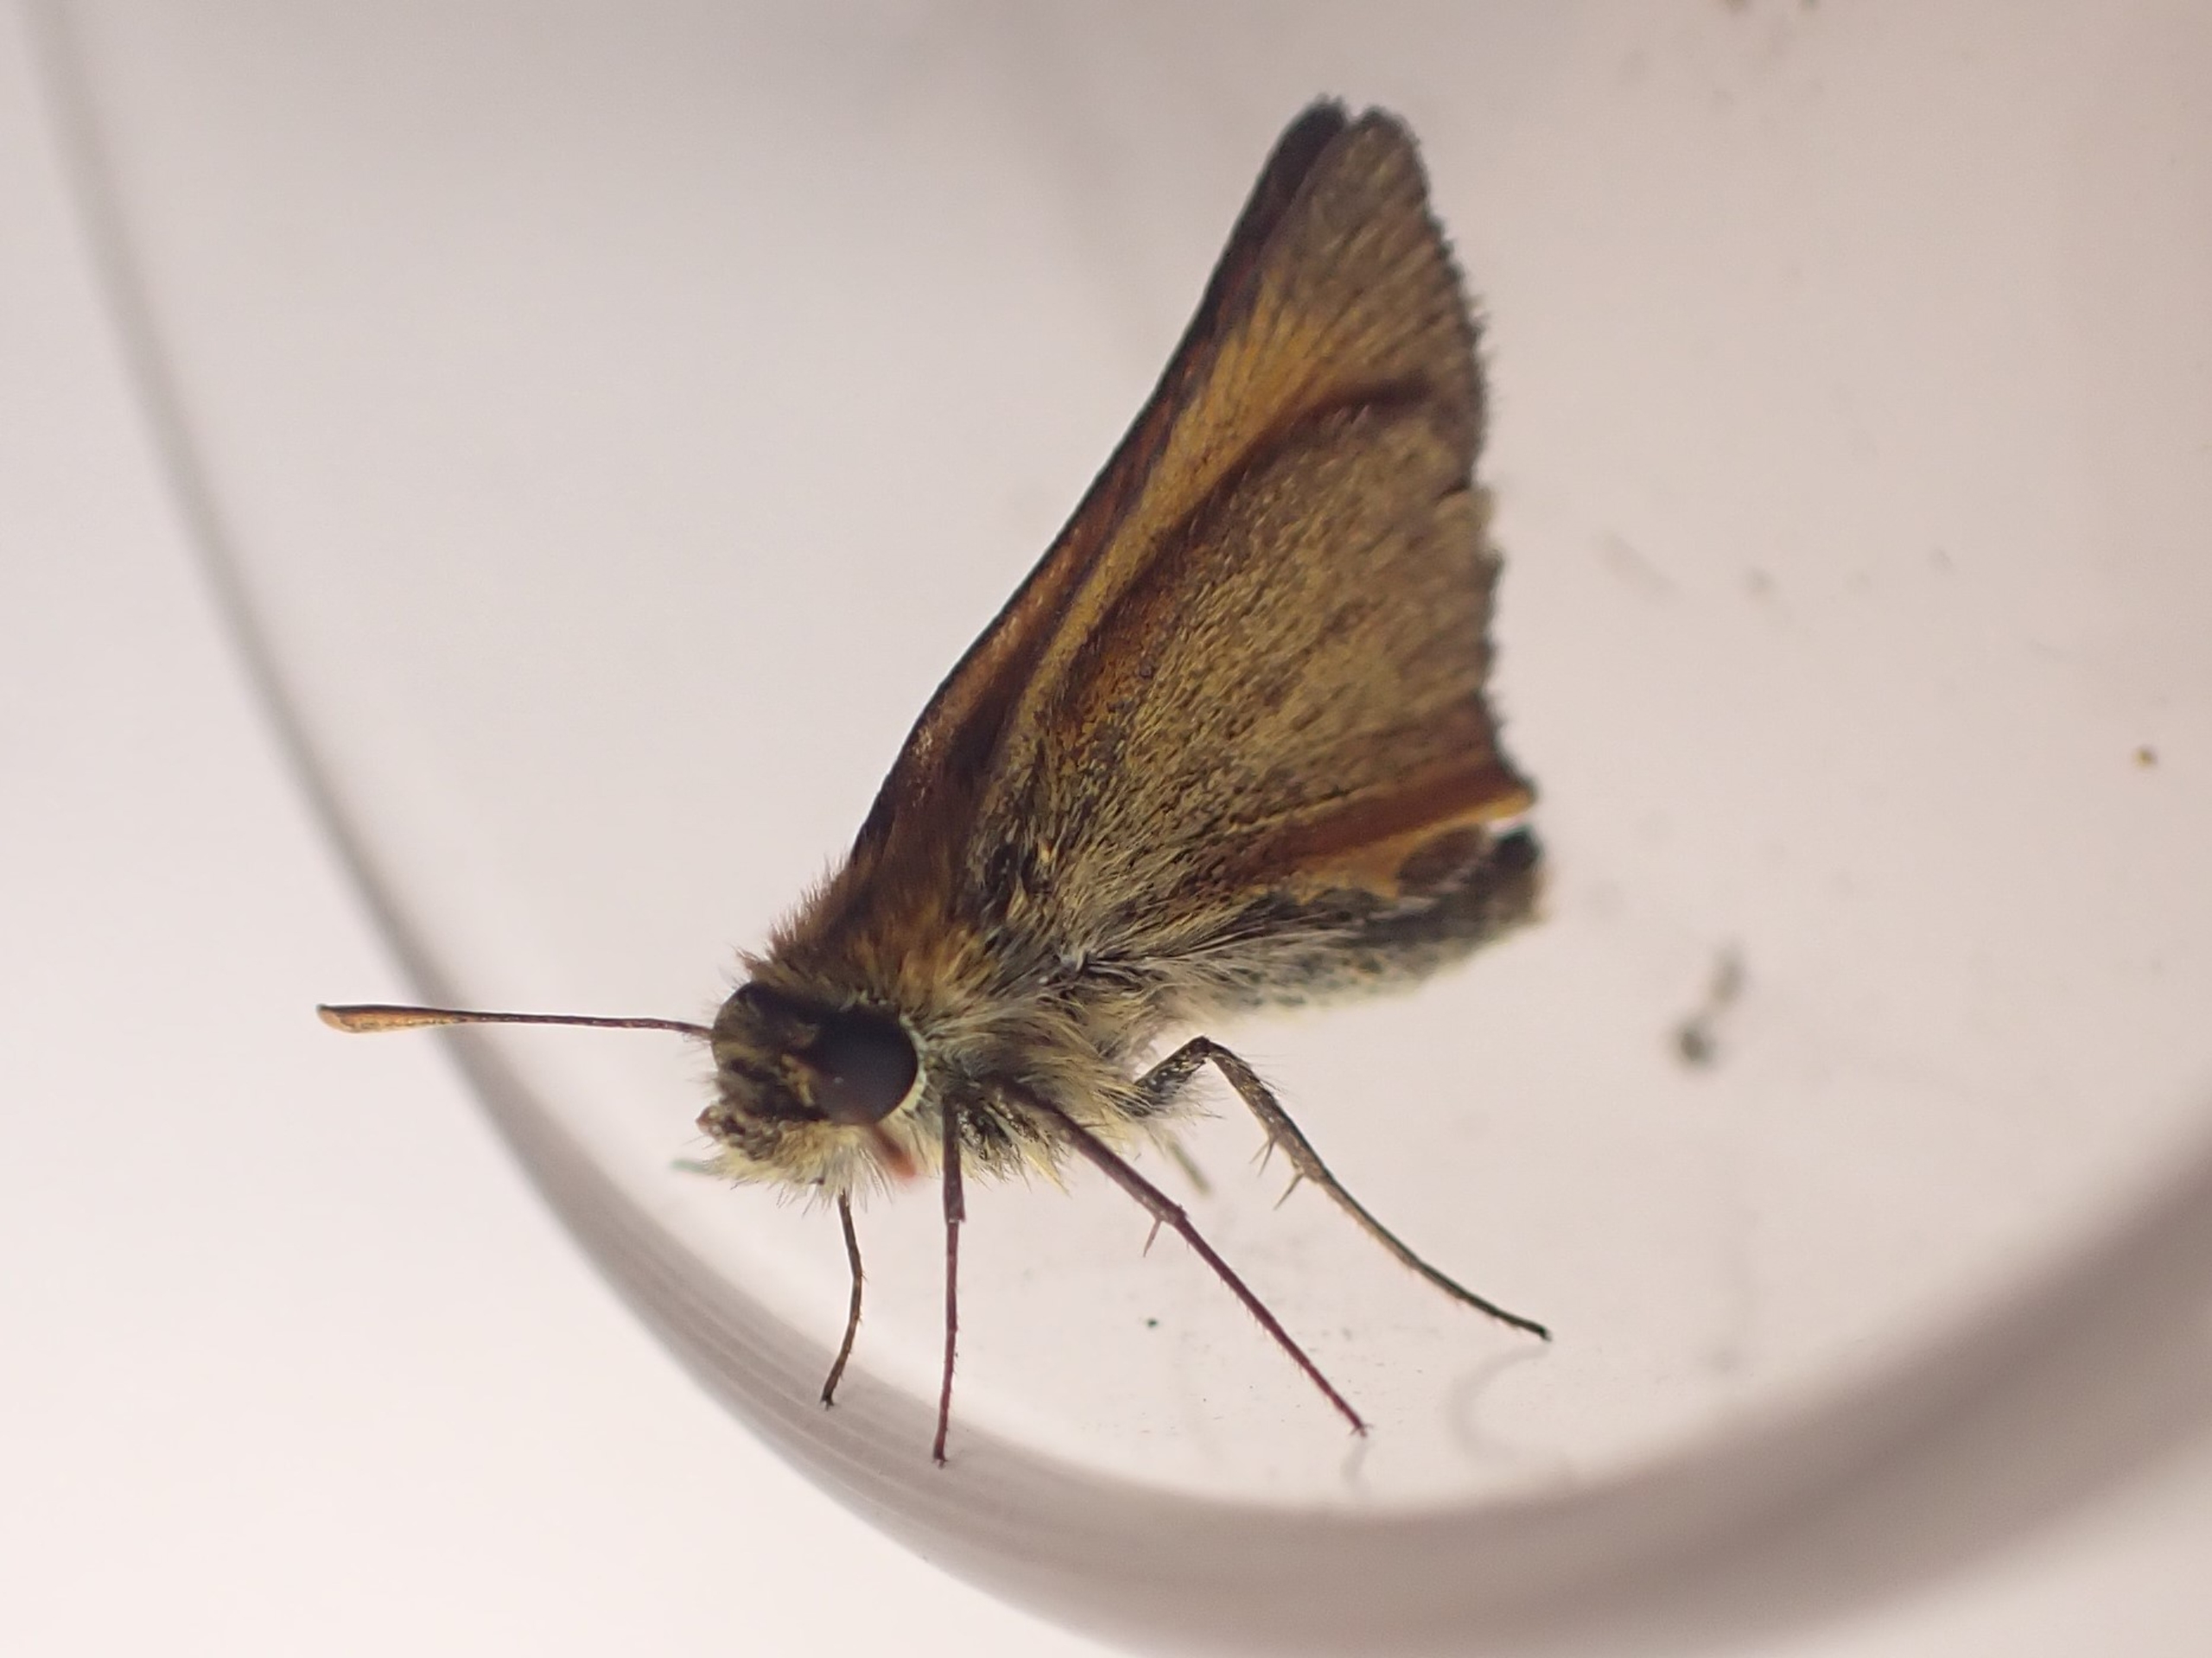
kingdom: Animalia
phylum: Arthropoda
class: Insecta
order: Lepidoptera
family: Hesperiidae
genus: Thymelicus
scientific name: Thymelicus sylvestris
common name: Skråstregbredpande
